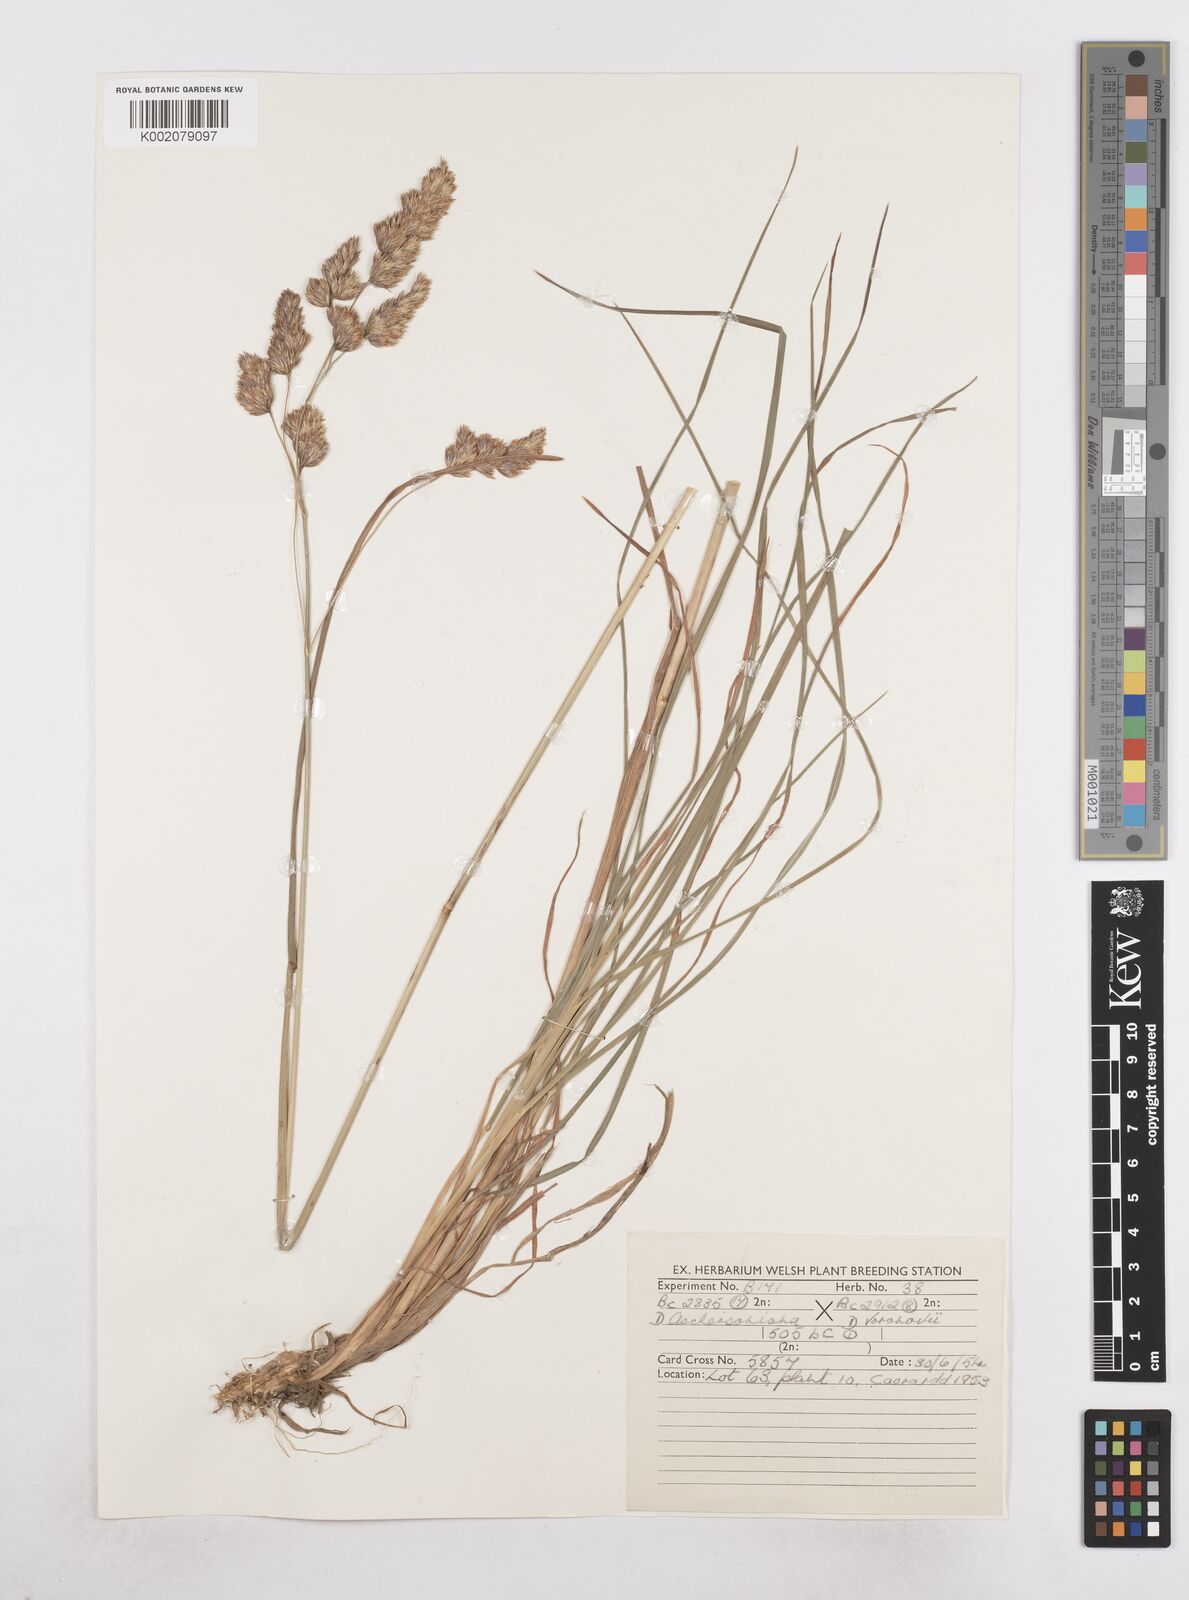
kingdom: Plantae
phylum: Tracheophyta
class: Liliopsida
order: Poales
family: Poaceae
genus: Dactylis
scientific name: Dactylis glomerata
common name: Orchardgrass
